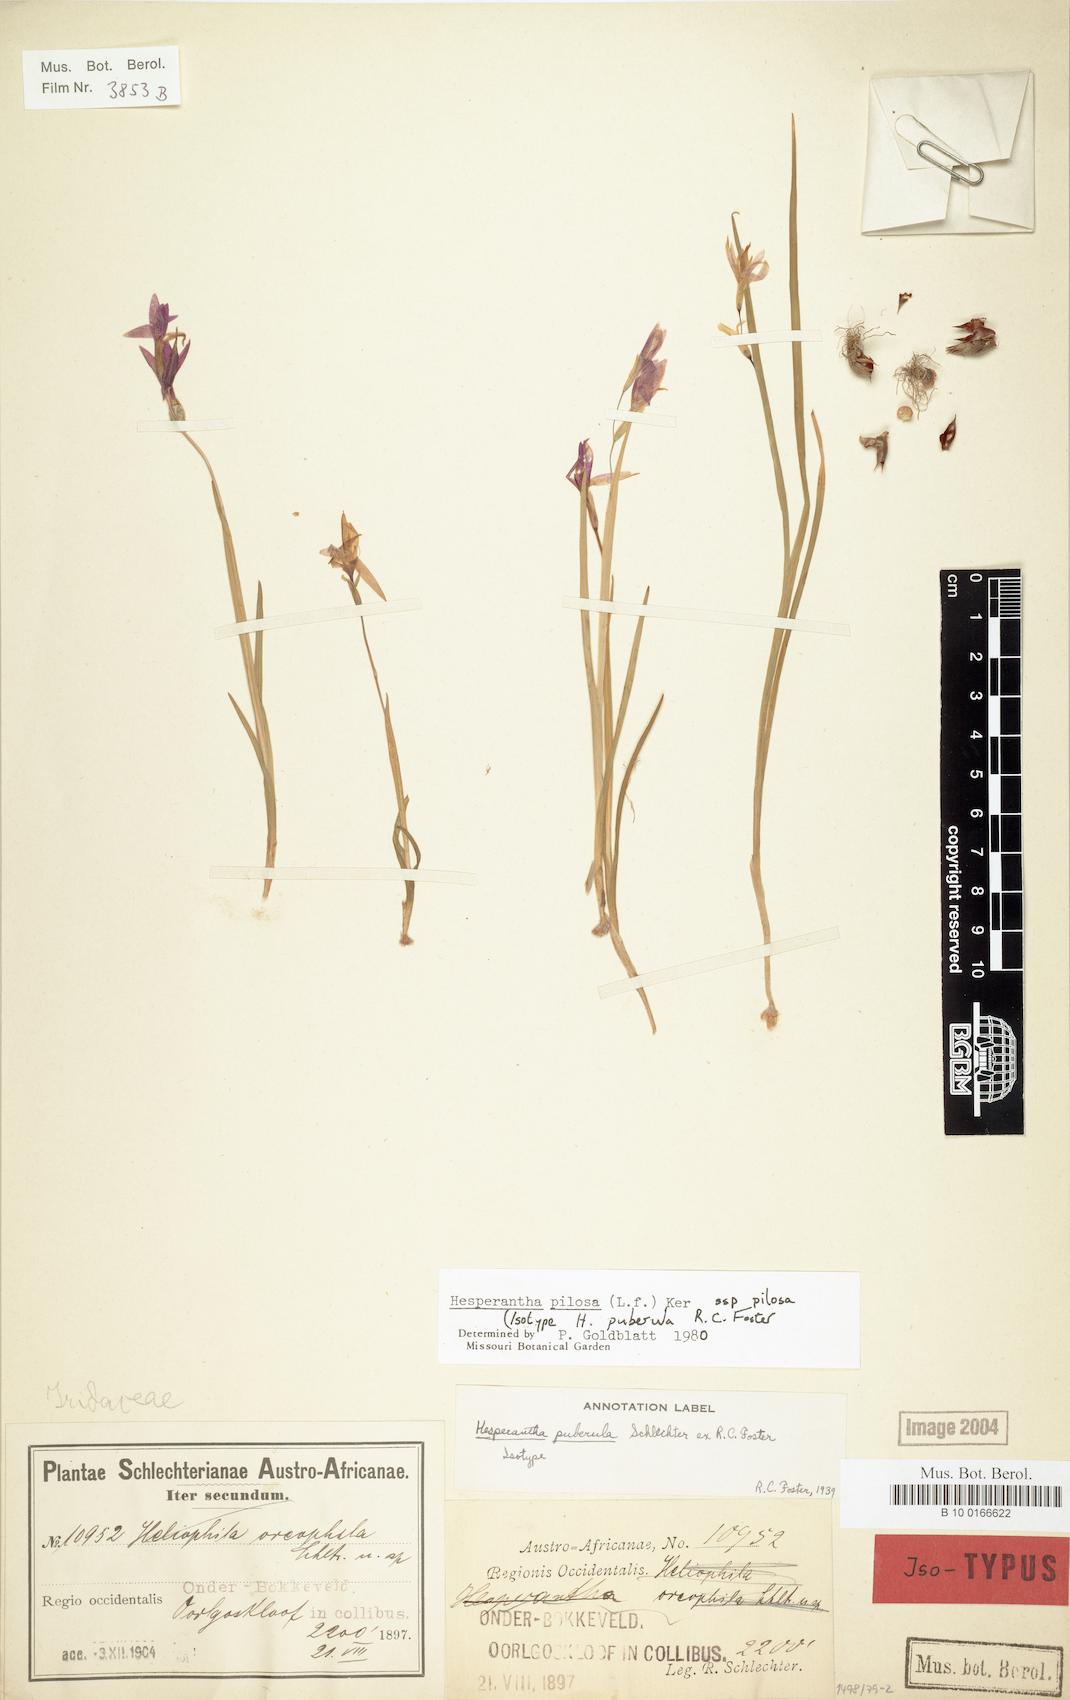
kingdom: Plantae
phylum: Tracheophyta
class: Liliopsida
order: Asparagales
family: Iridaceae
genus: Hesperantha
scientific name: Hesperantha pilosa
